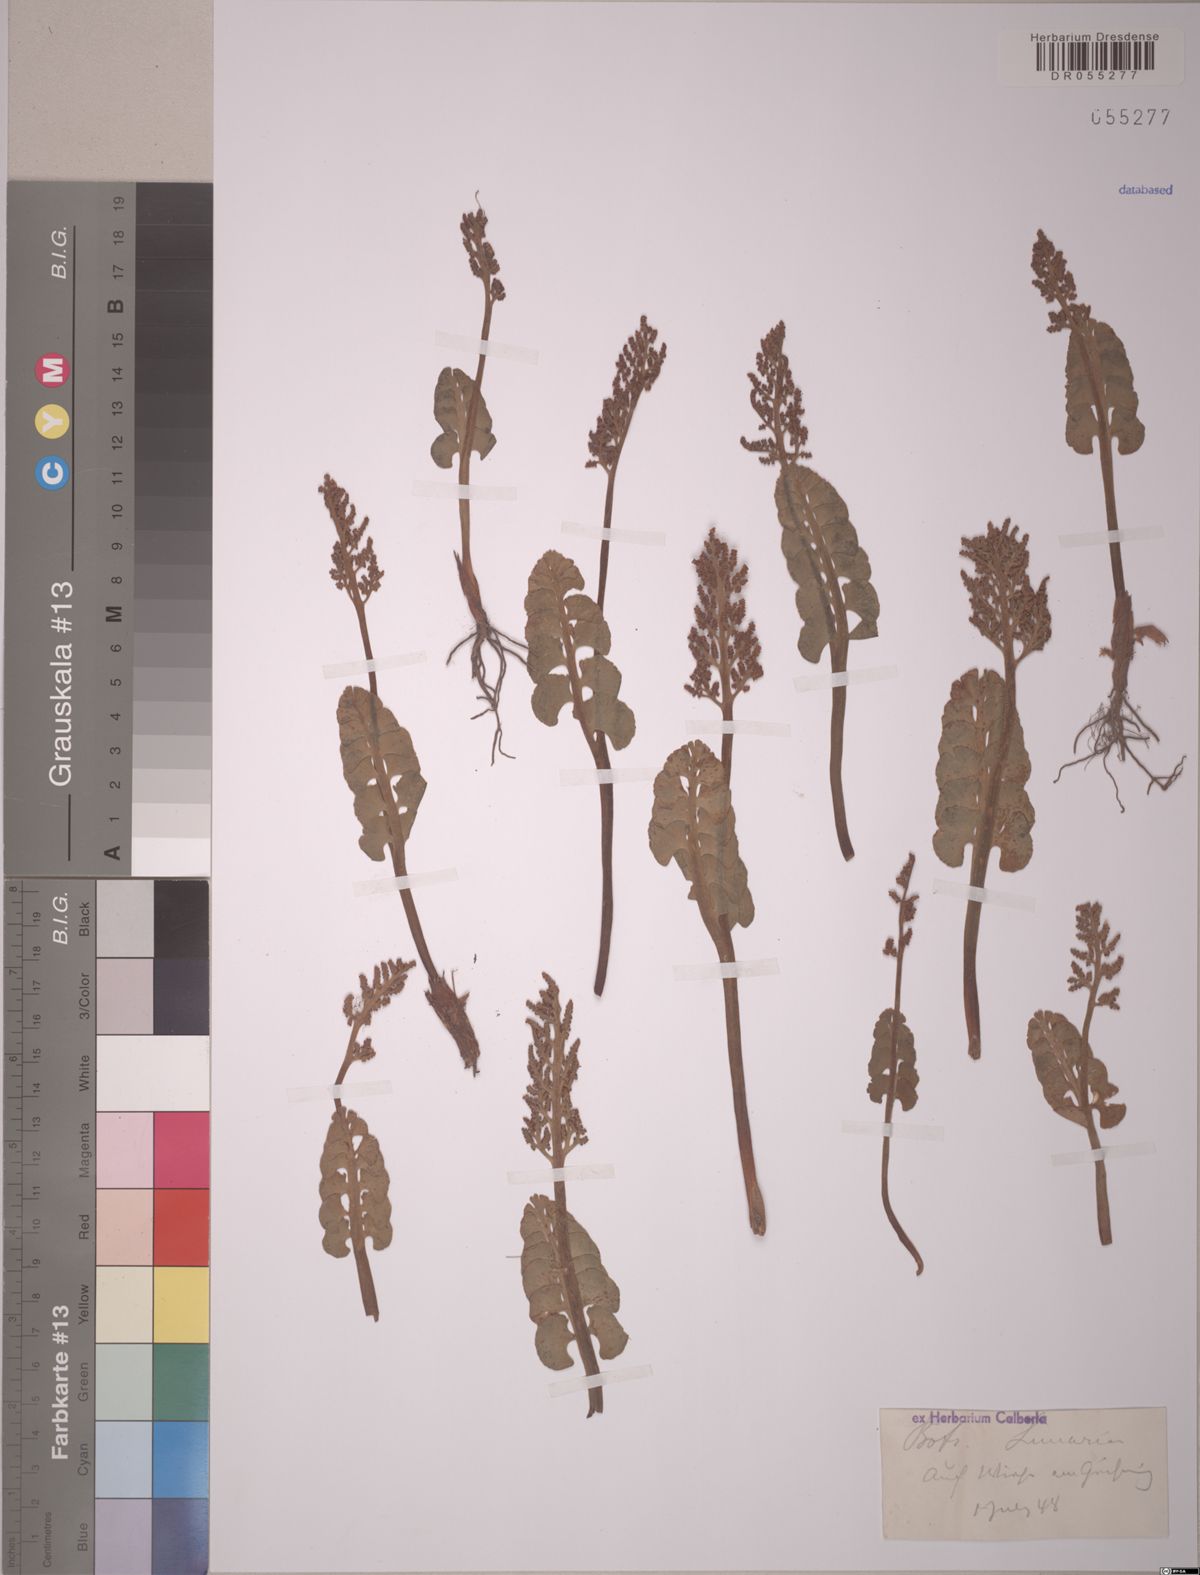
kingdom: Plantae
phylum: Tracheophyta
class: Polypodiopsida
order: Ophioglossales
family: Ophioglossaceae
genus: Botrychium
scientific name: Botrychium lunaria
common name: Moonwort
